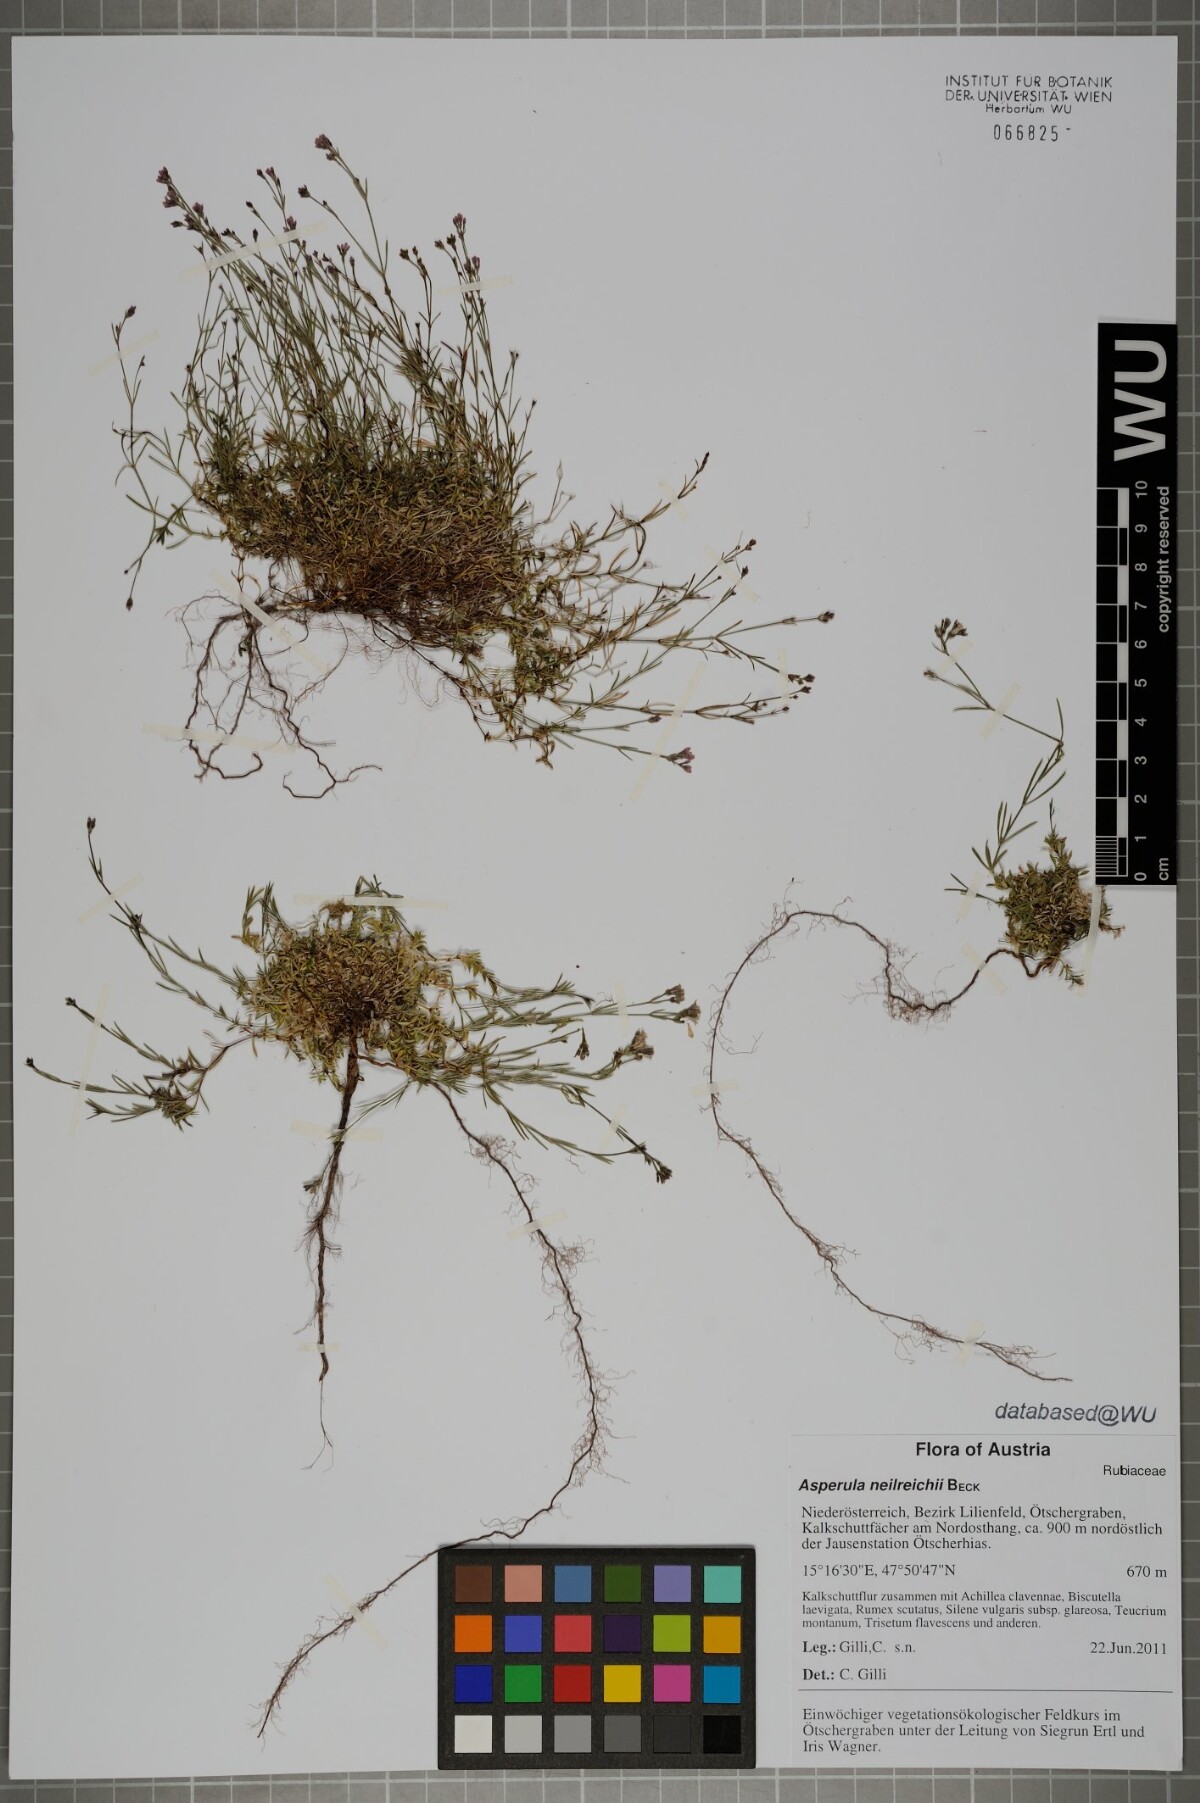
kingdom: Plantae
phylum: Tracheophyta
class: Magnoliopsida
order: Gentianales
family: Rubiaceae
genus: Cynanchica
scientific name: Cynanchica neilreichii
